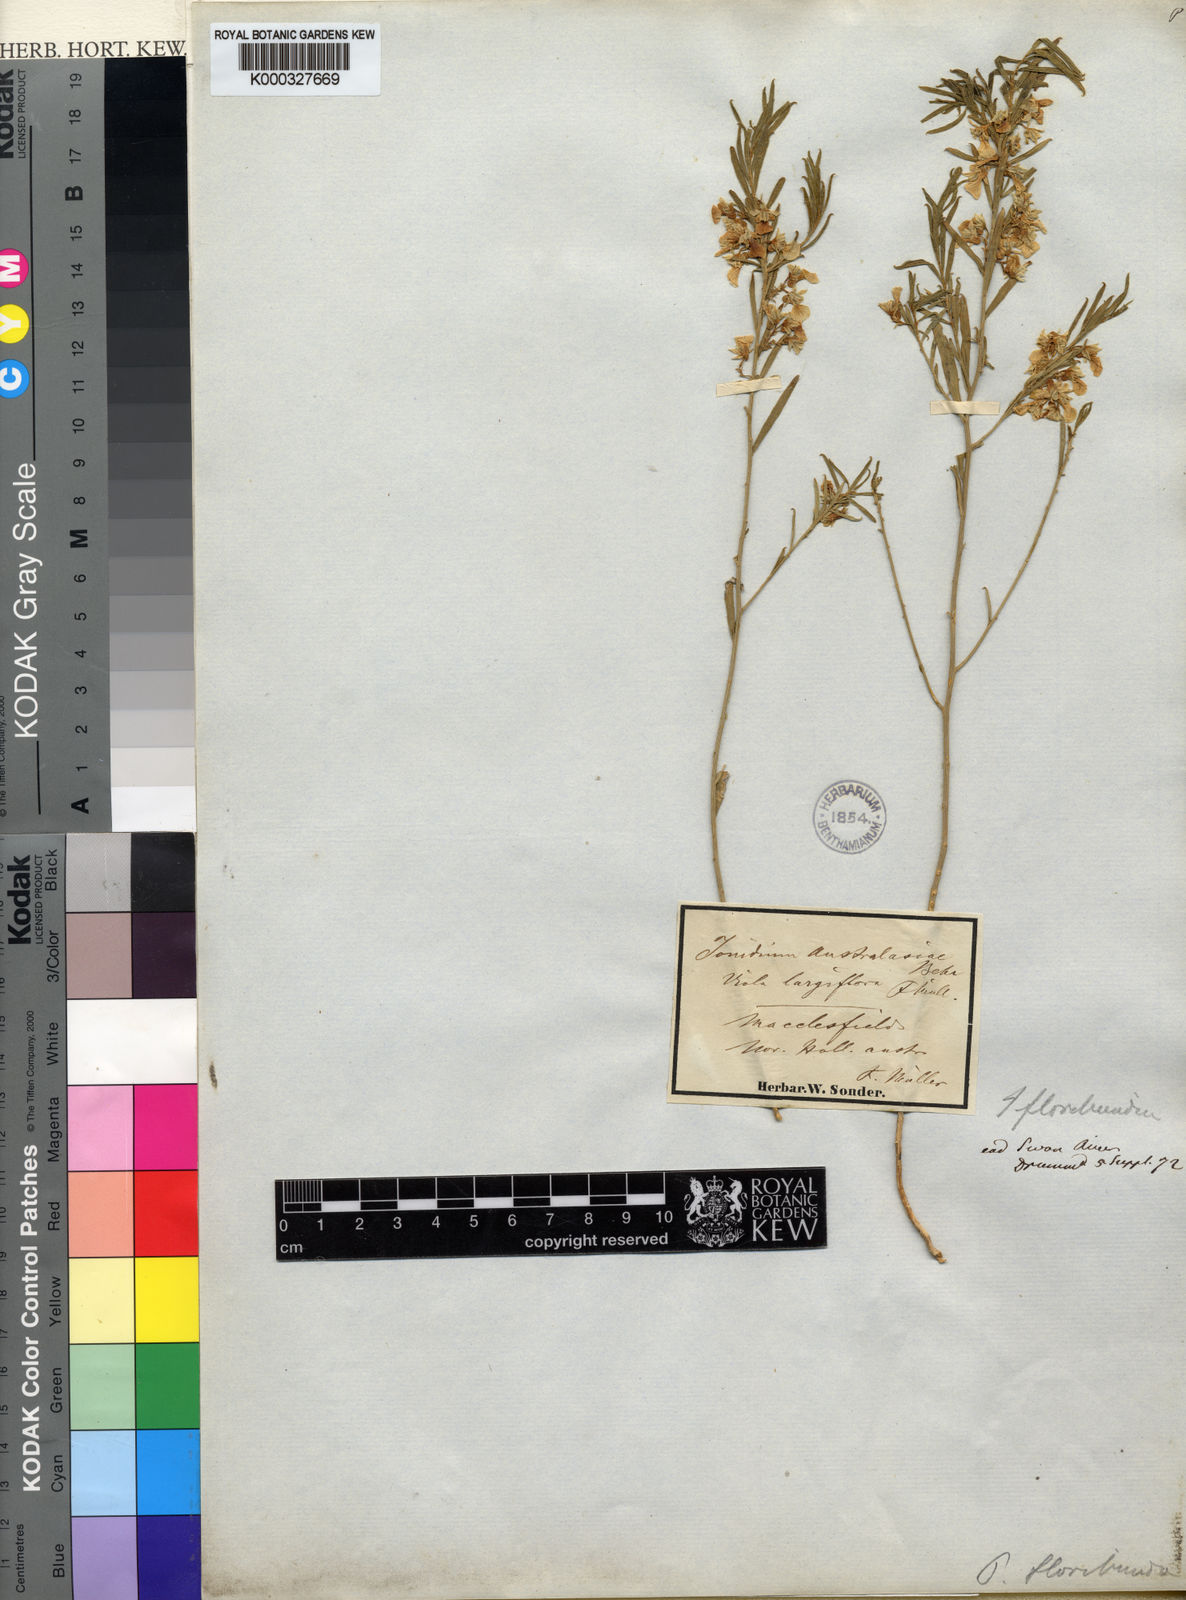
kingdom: Plantae
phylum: Tracheophyta
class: Magnoliopsida
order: Malpighiales
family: Violaceae
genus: Pigea
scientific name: Pigea floribunda
